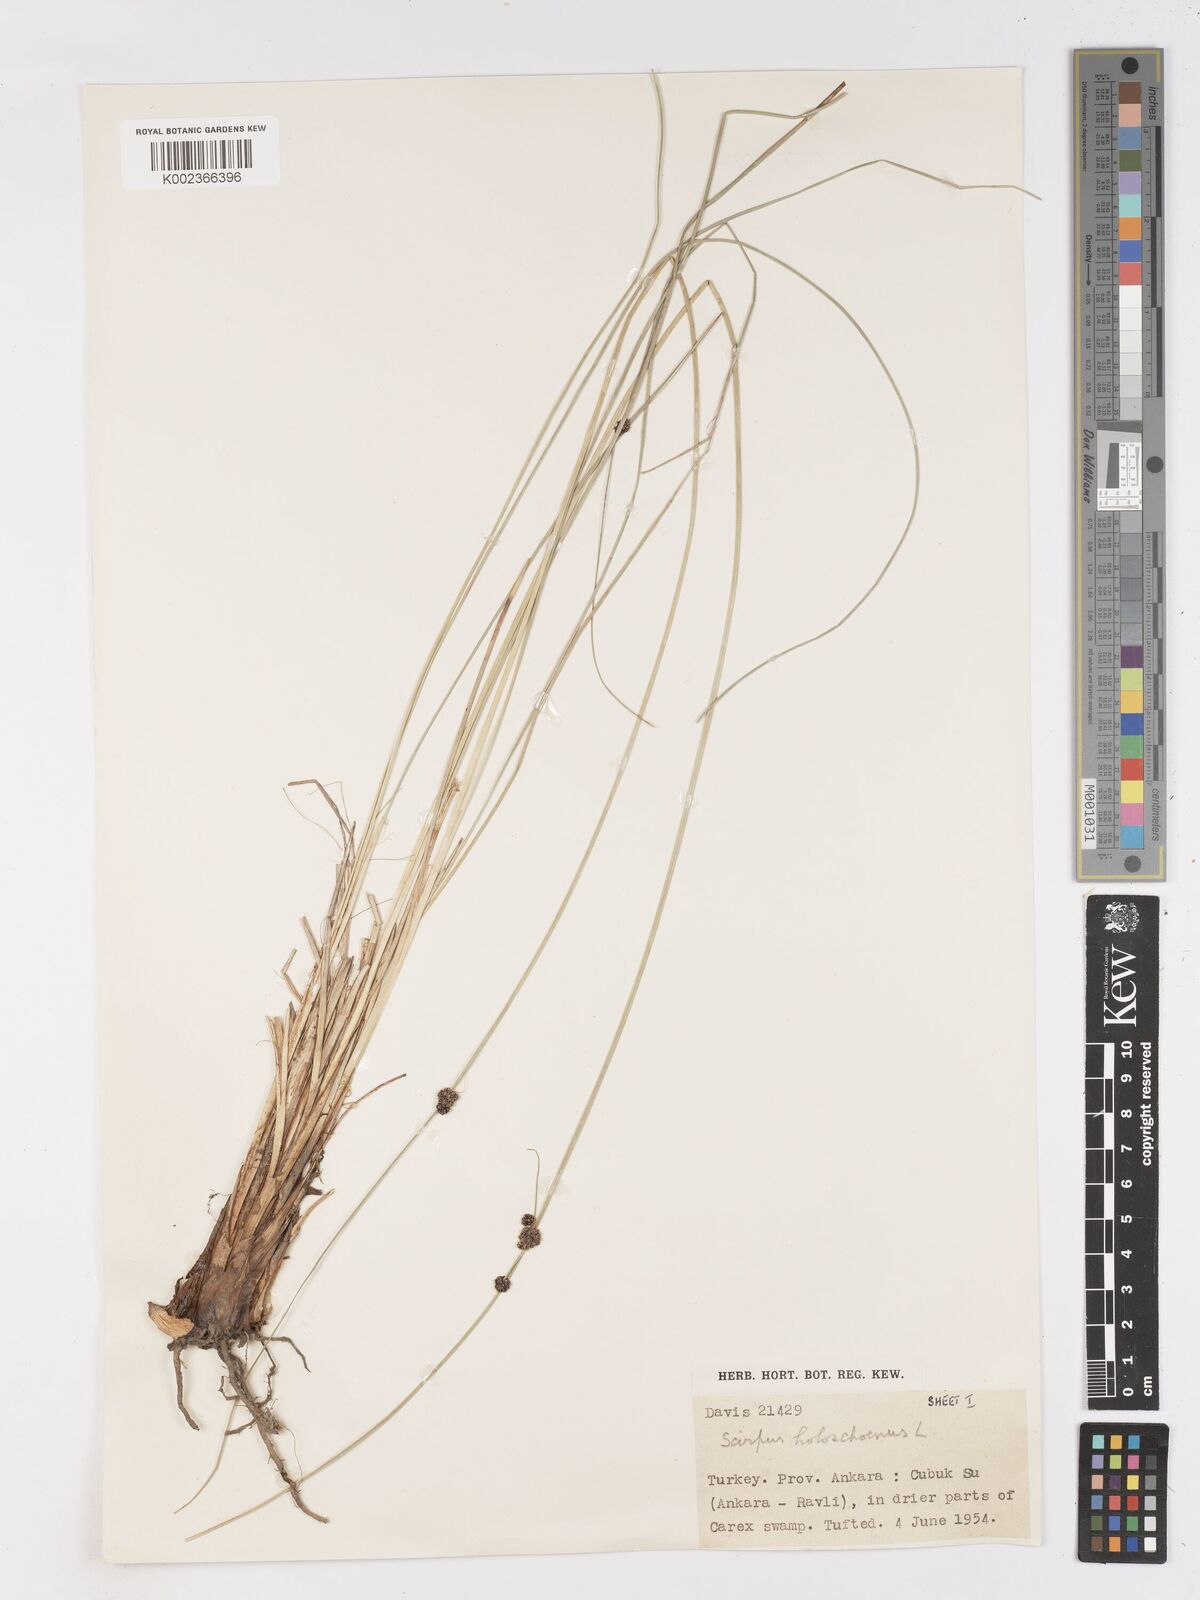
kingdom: Plantae
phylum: Tracheophyta
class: Liliopsida
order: Poales
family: Cyperaceae
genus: Scirpoides
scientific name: Scirpoides holoschoenus
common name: Round-headed club-rush
